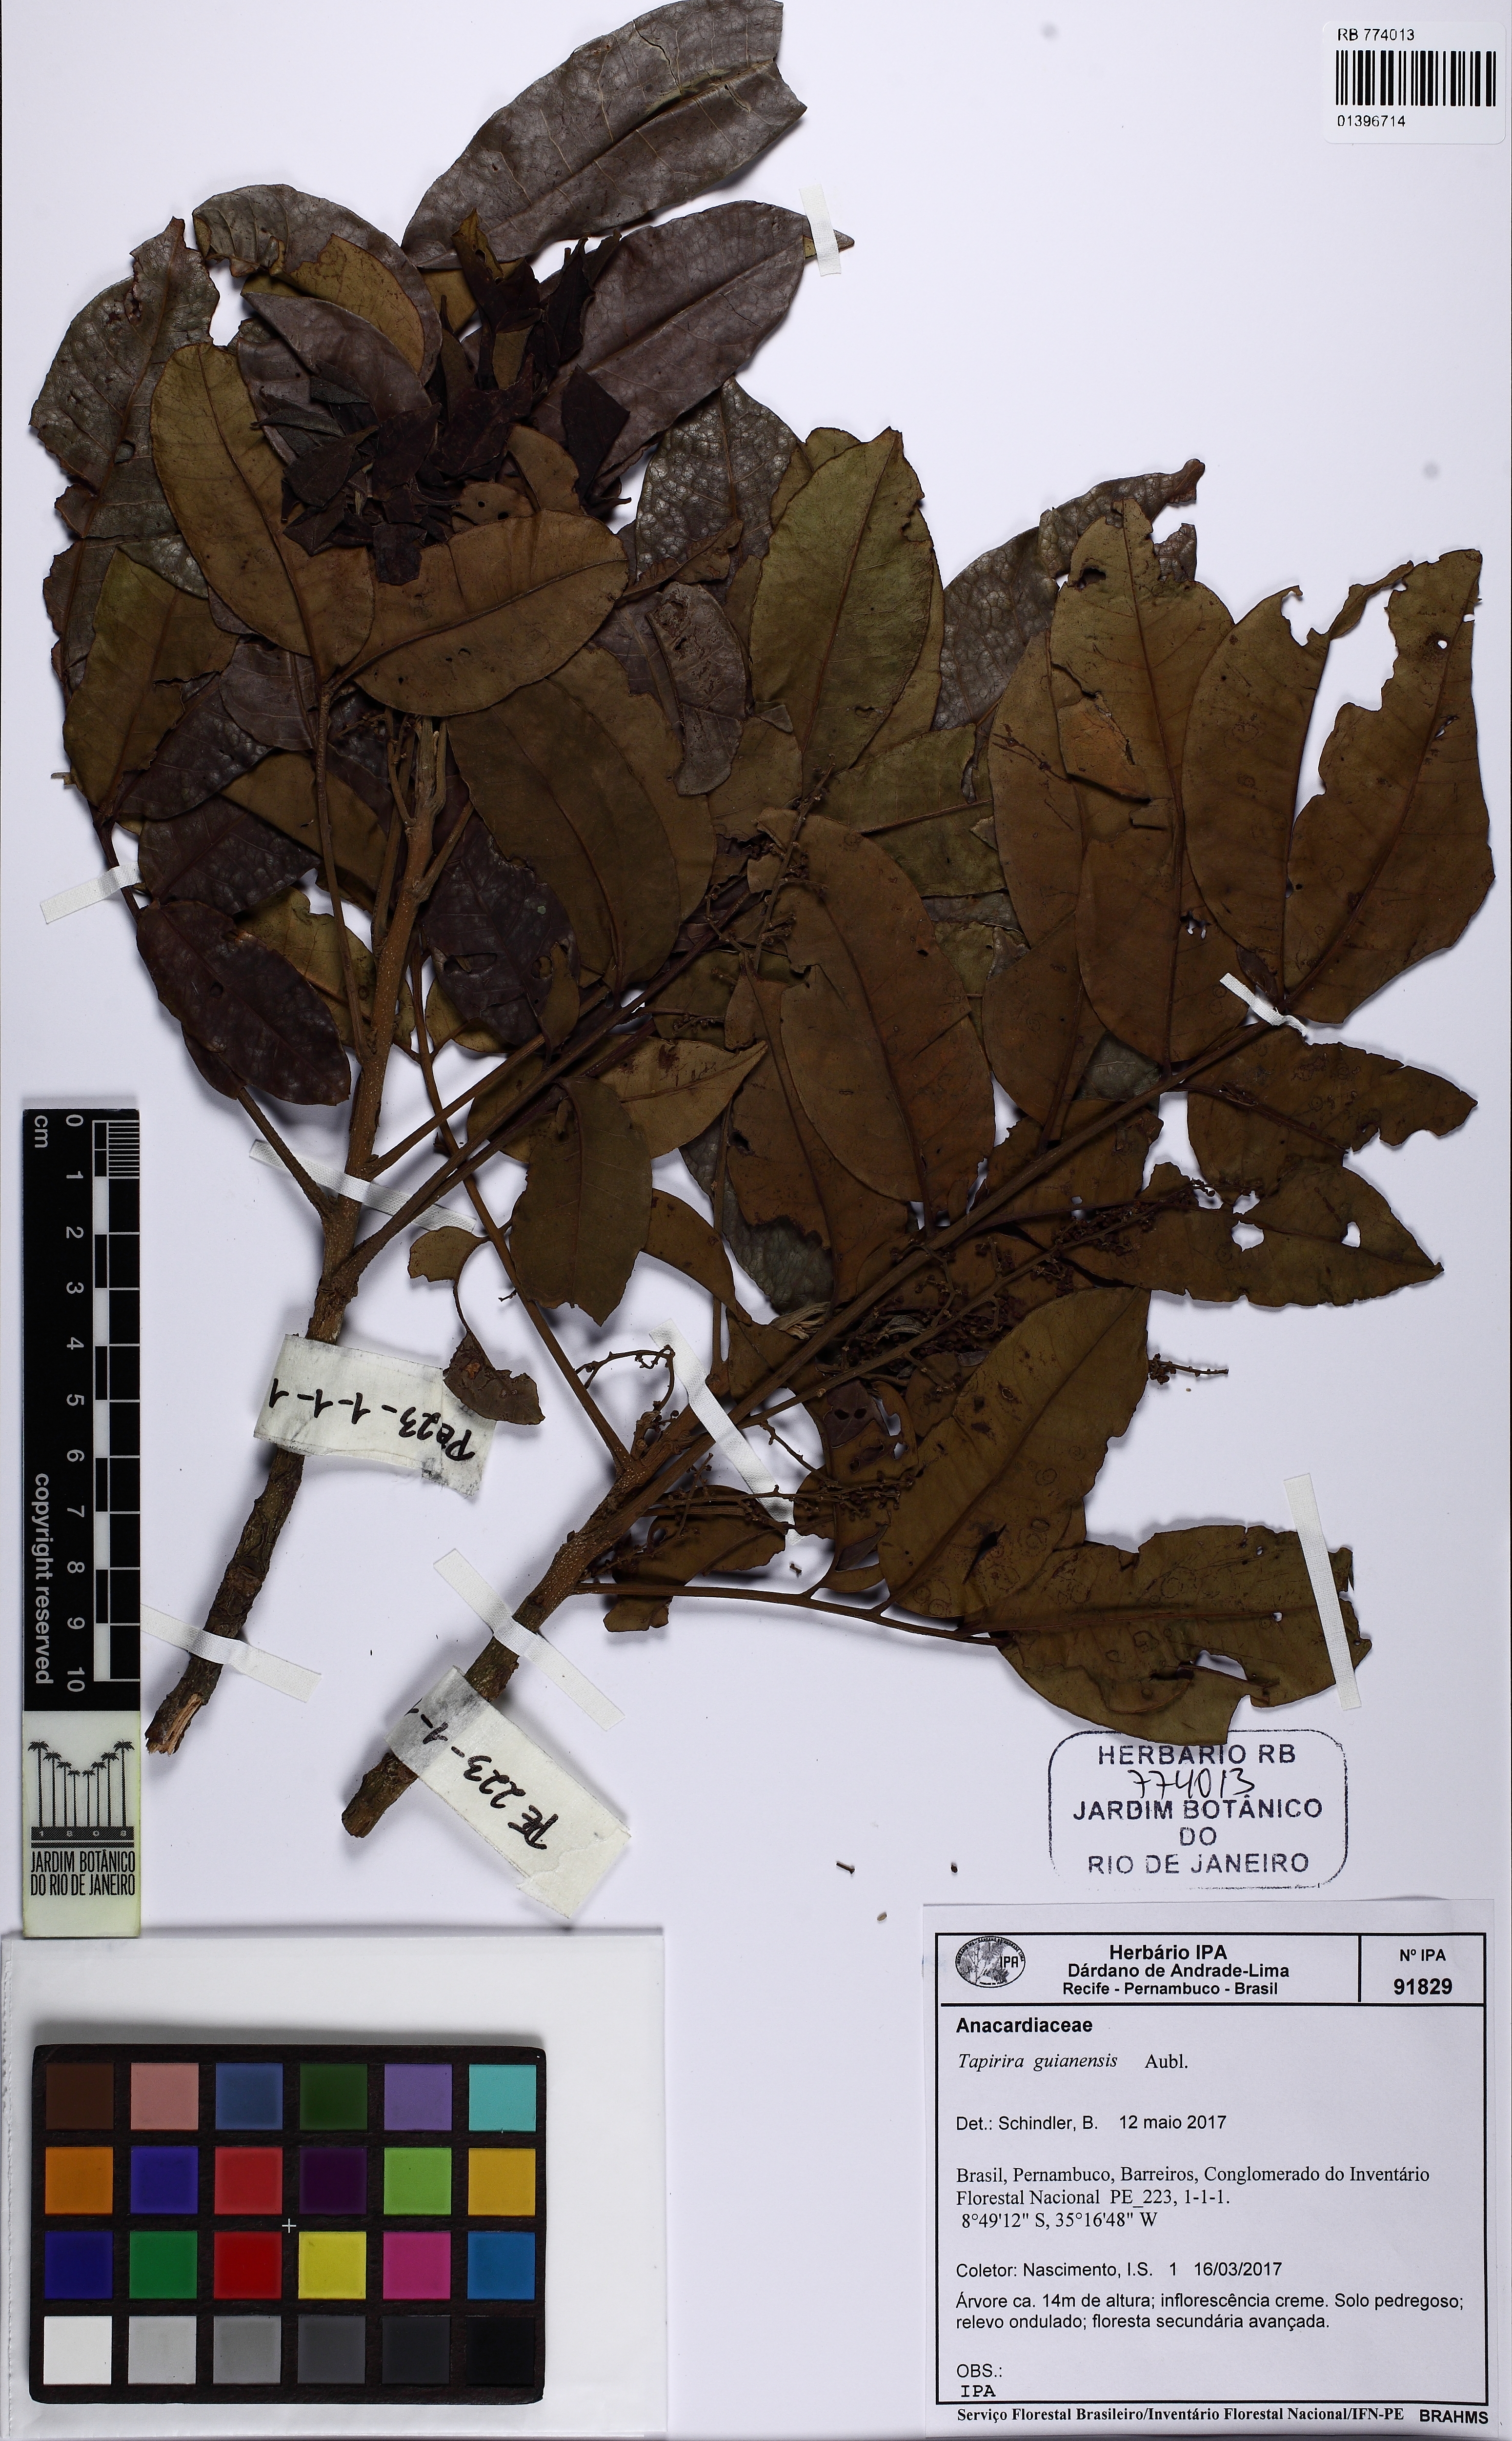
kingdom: Plantae
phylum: Tracheophyta
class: Magnoliopsida
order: Sapindales
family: Anacardiaceae
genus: Tapirira
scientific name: Tapirira guianensis
